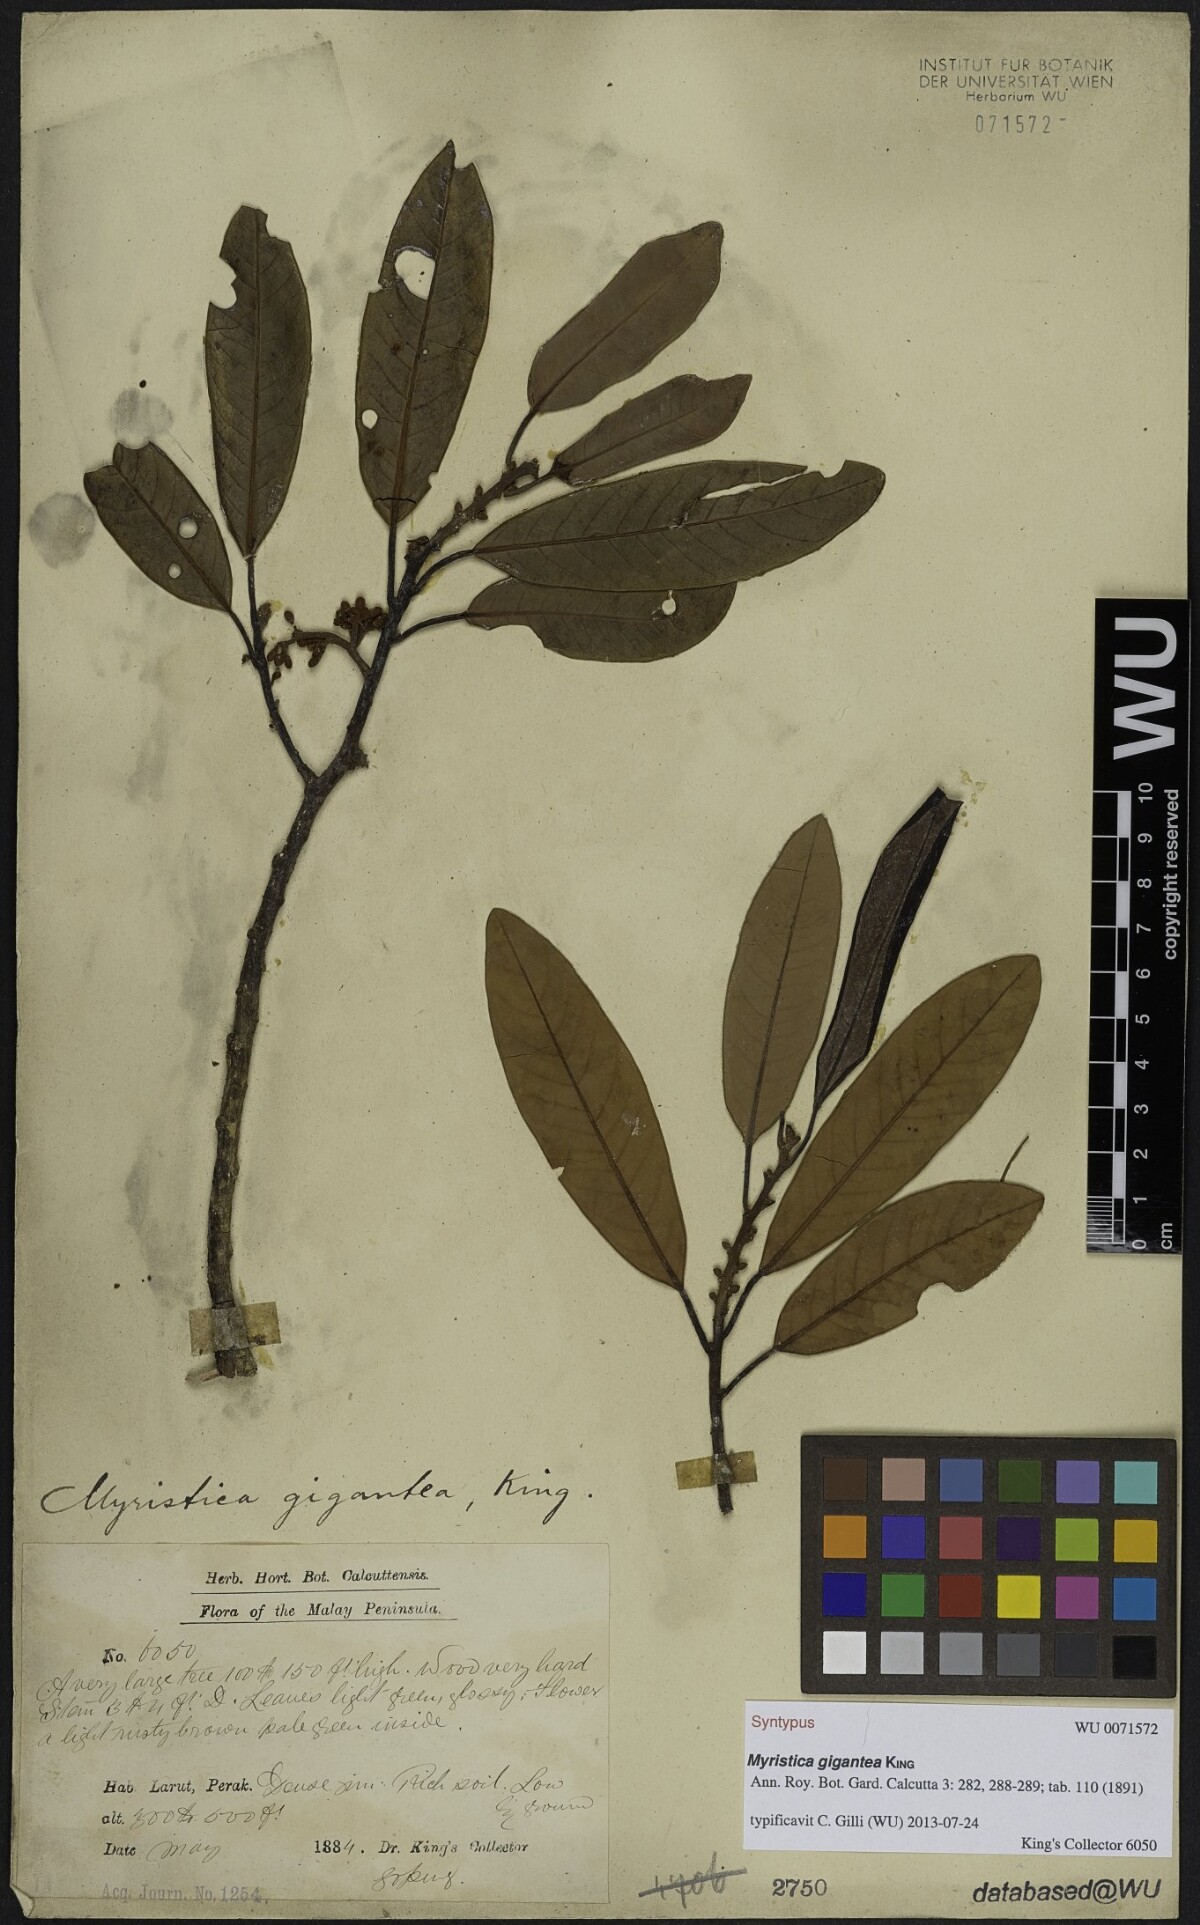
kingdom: Plantae
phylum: Tracheophyta
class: Magnoliopsida
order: Magnoliales
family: Myristicaceae
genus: Myristica
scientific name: Myristica gigantea
